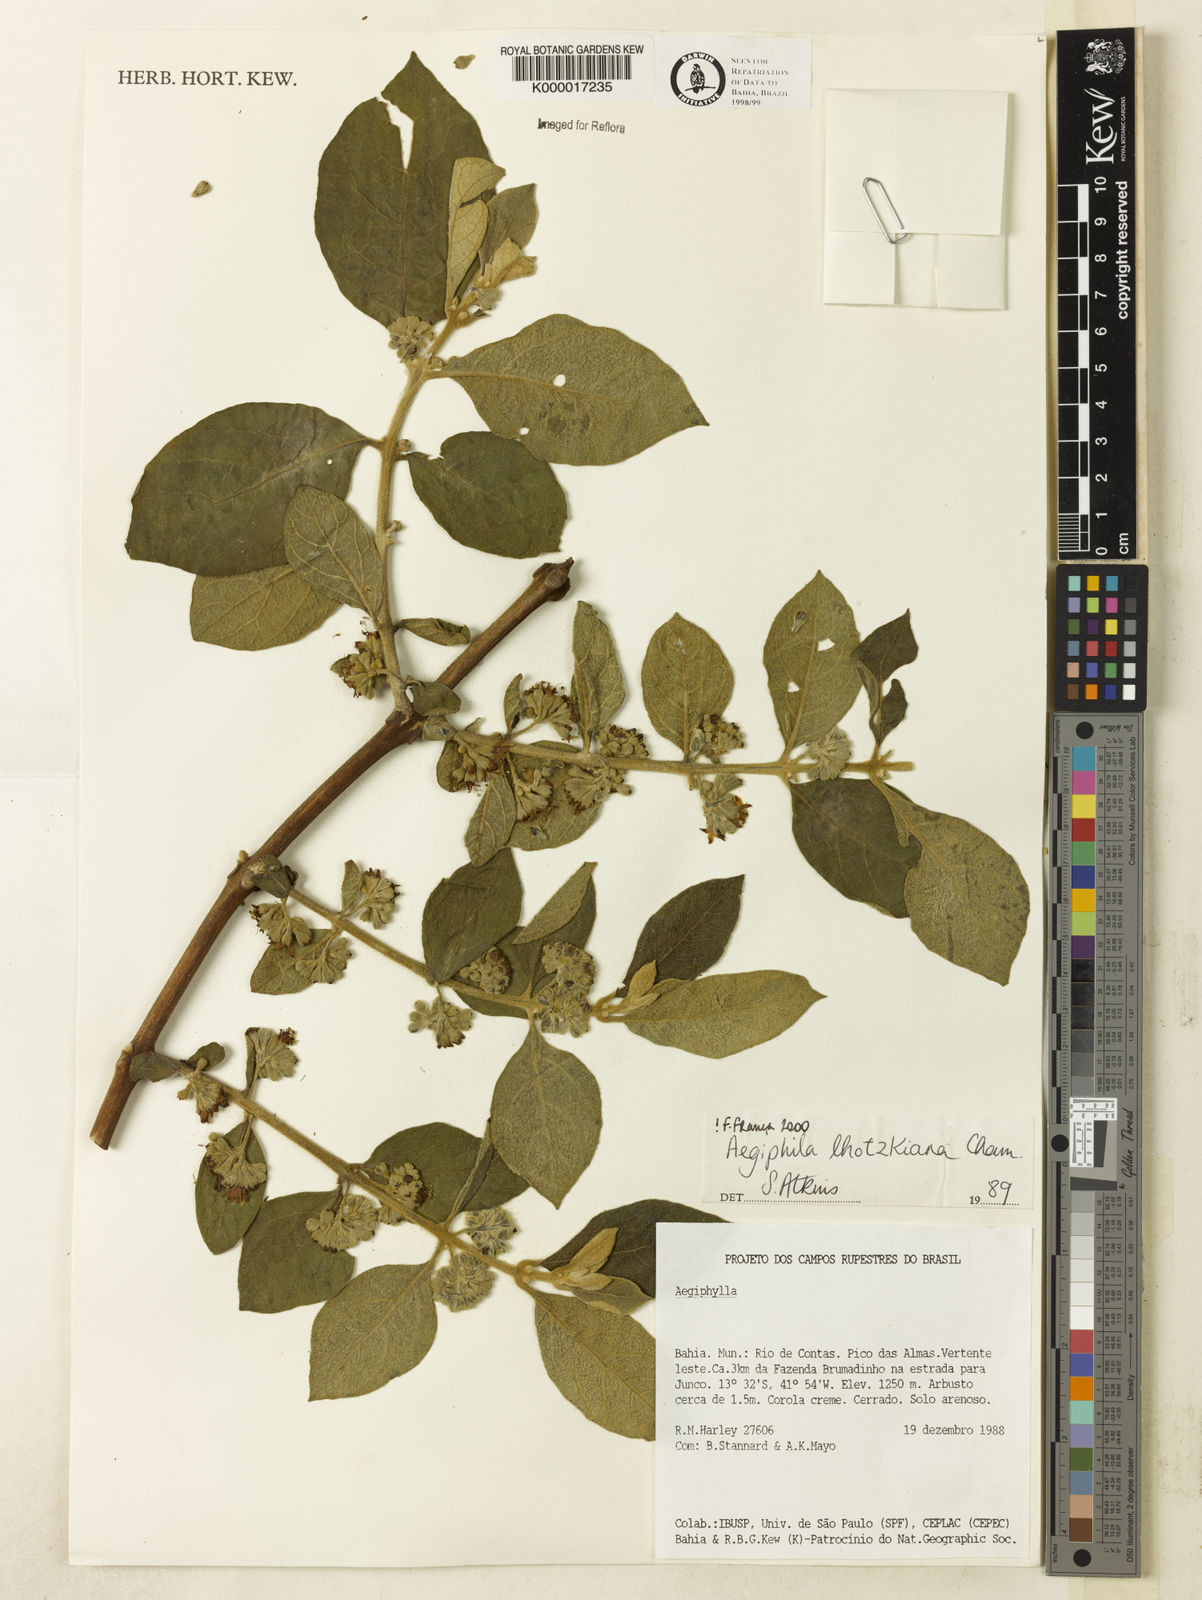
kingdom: Plantae
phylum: Tracheophyta
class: Magnoliopsida
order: Lamiales
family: Lamiaceae
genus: Aegiphila
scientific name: Aegiphila verticillata
